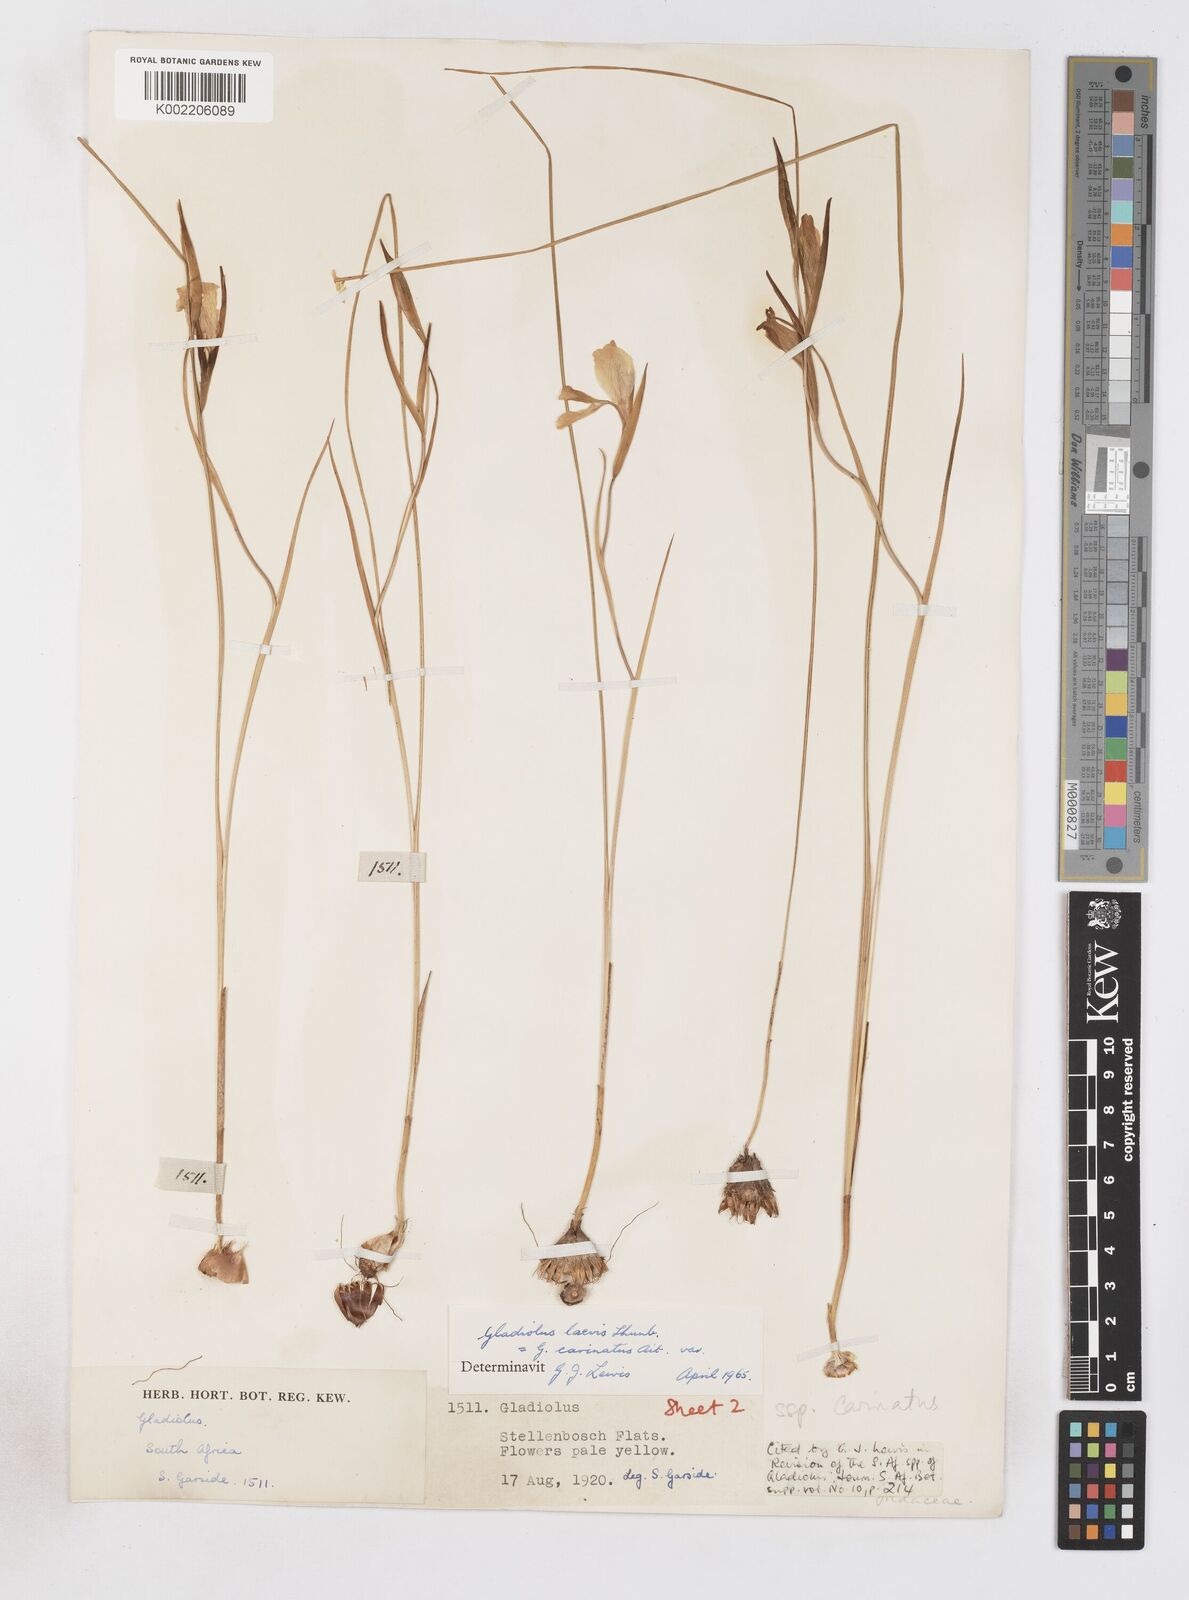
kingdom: Plantae
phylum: Tracheophyta
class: Liliopsida
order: Asparagales
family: Iridaceae
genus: Gladiolus
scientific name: Gladiolus carinatus
